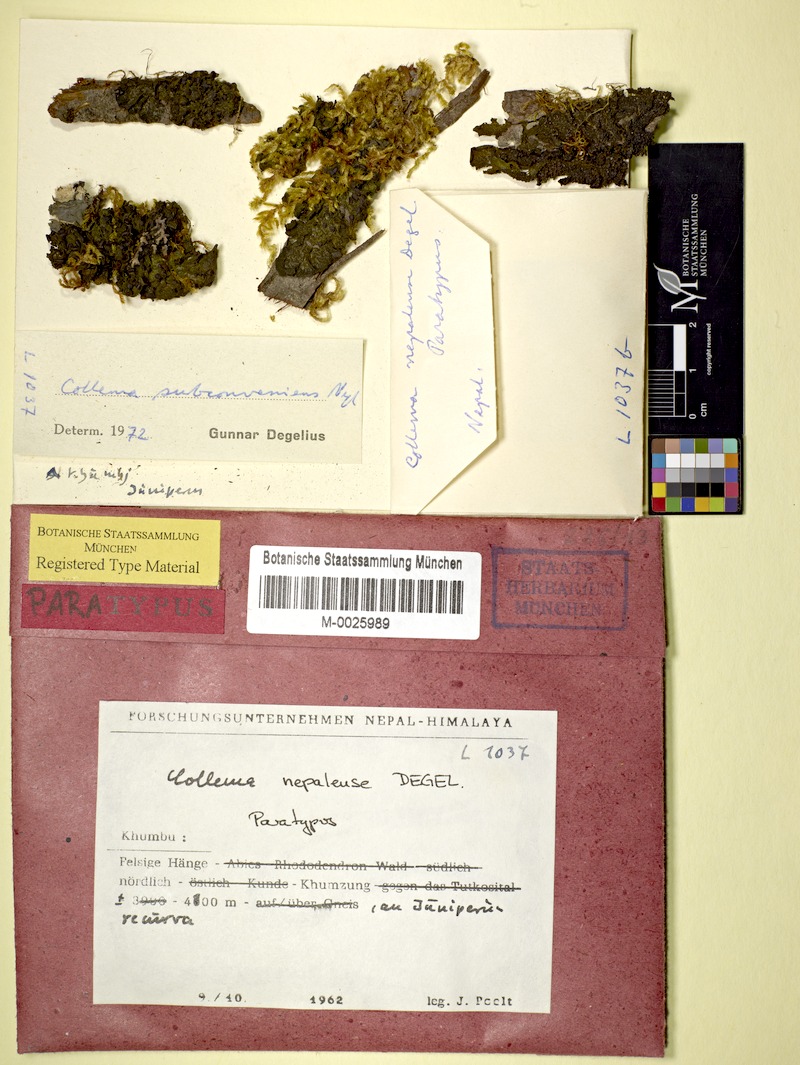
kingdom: Fungi
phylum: Ascomycota
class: Lecanoromycetes
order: Peltigerales
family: Collemataceae
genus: Collema
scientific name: Collema
